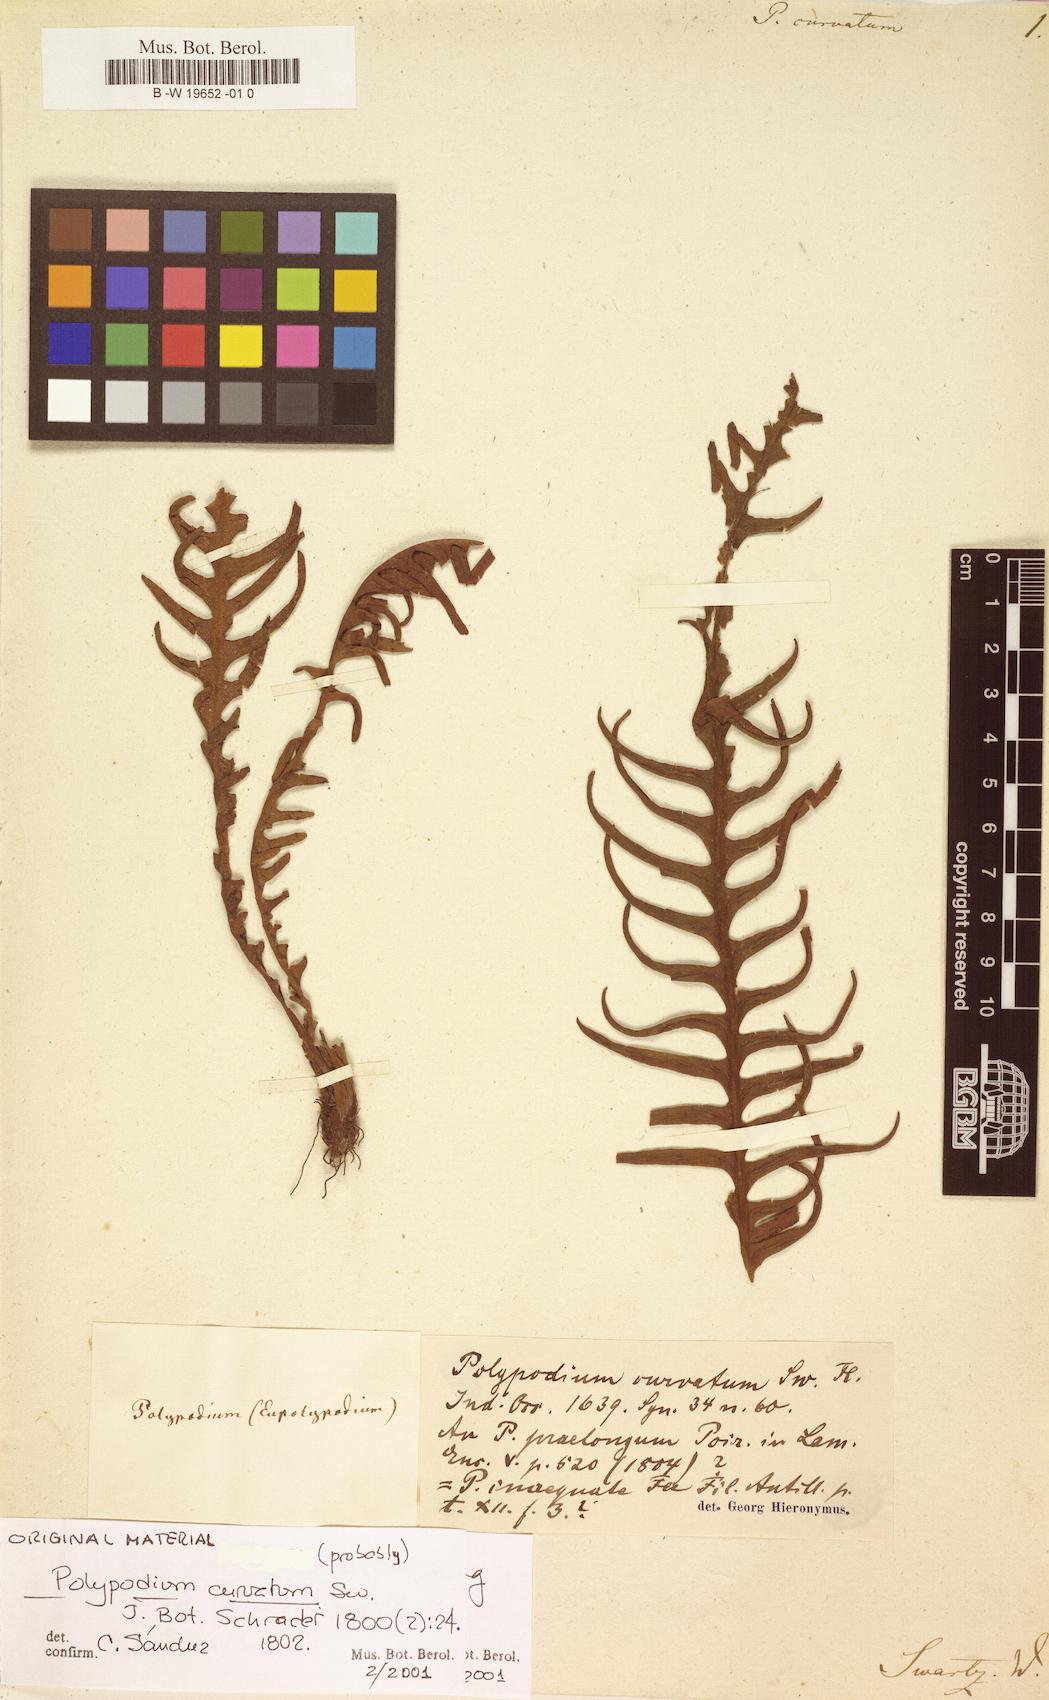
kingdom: Plantae
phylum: Tracheophyta
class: Polypodiopsida
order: Polypodiales
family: Polypodiaceae
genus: Ceradenia
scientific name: Ceradenia curvata
